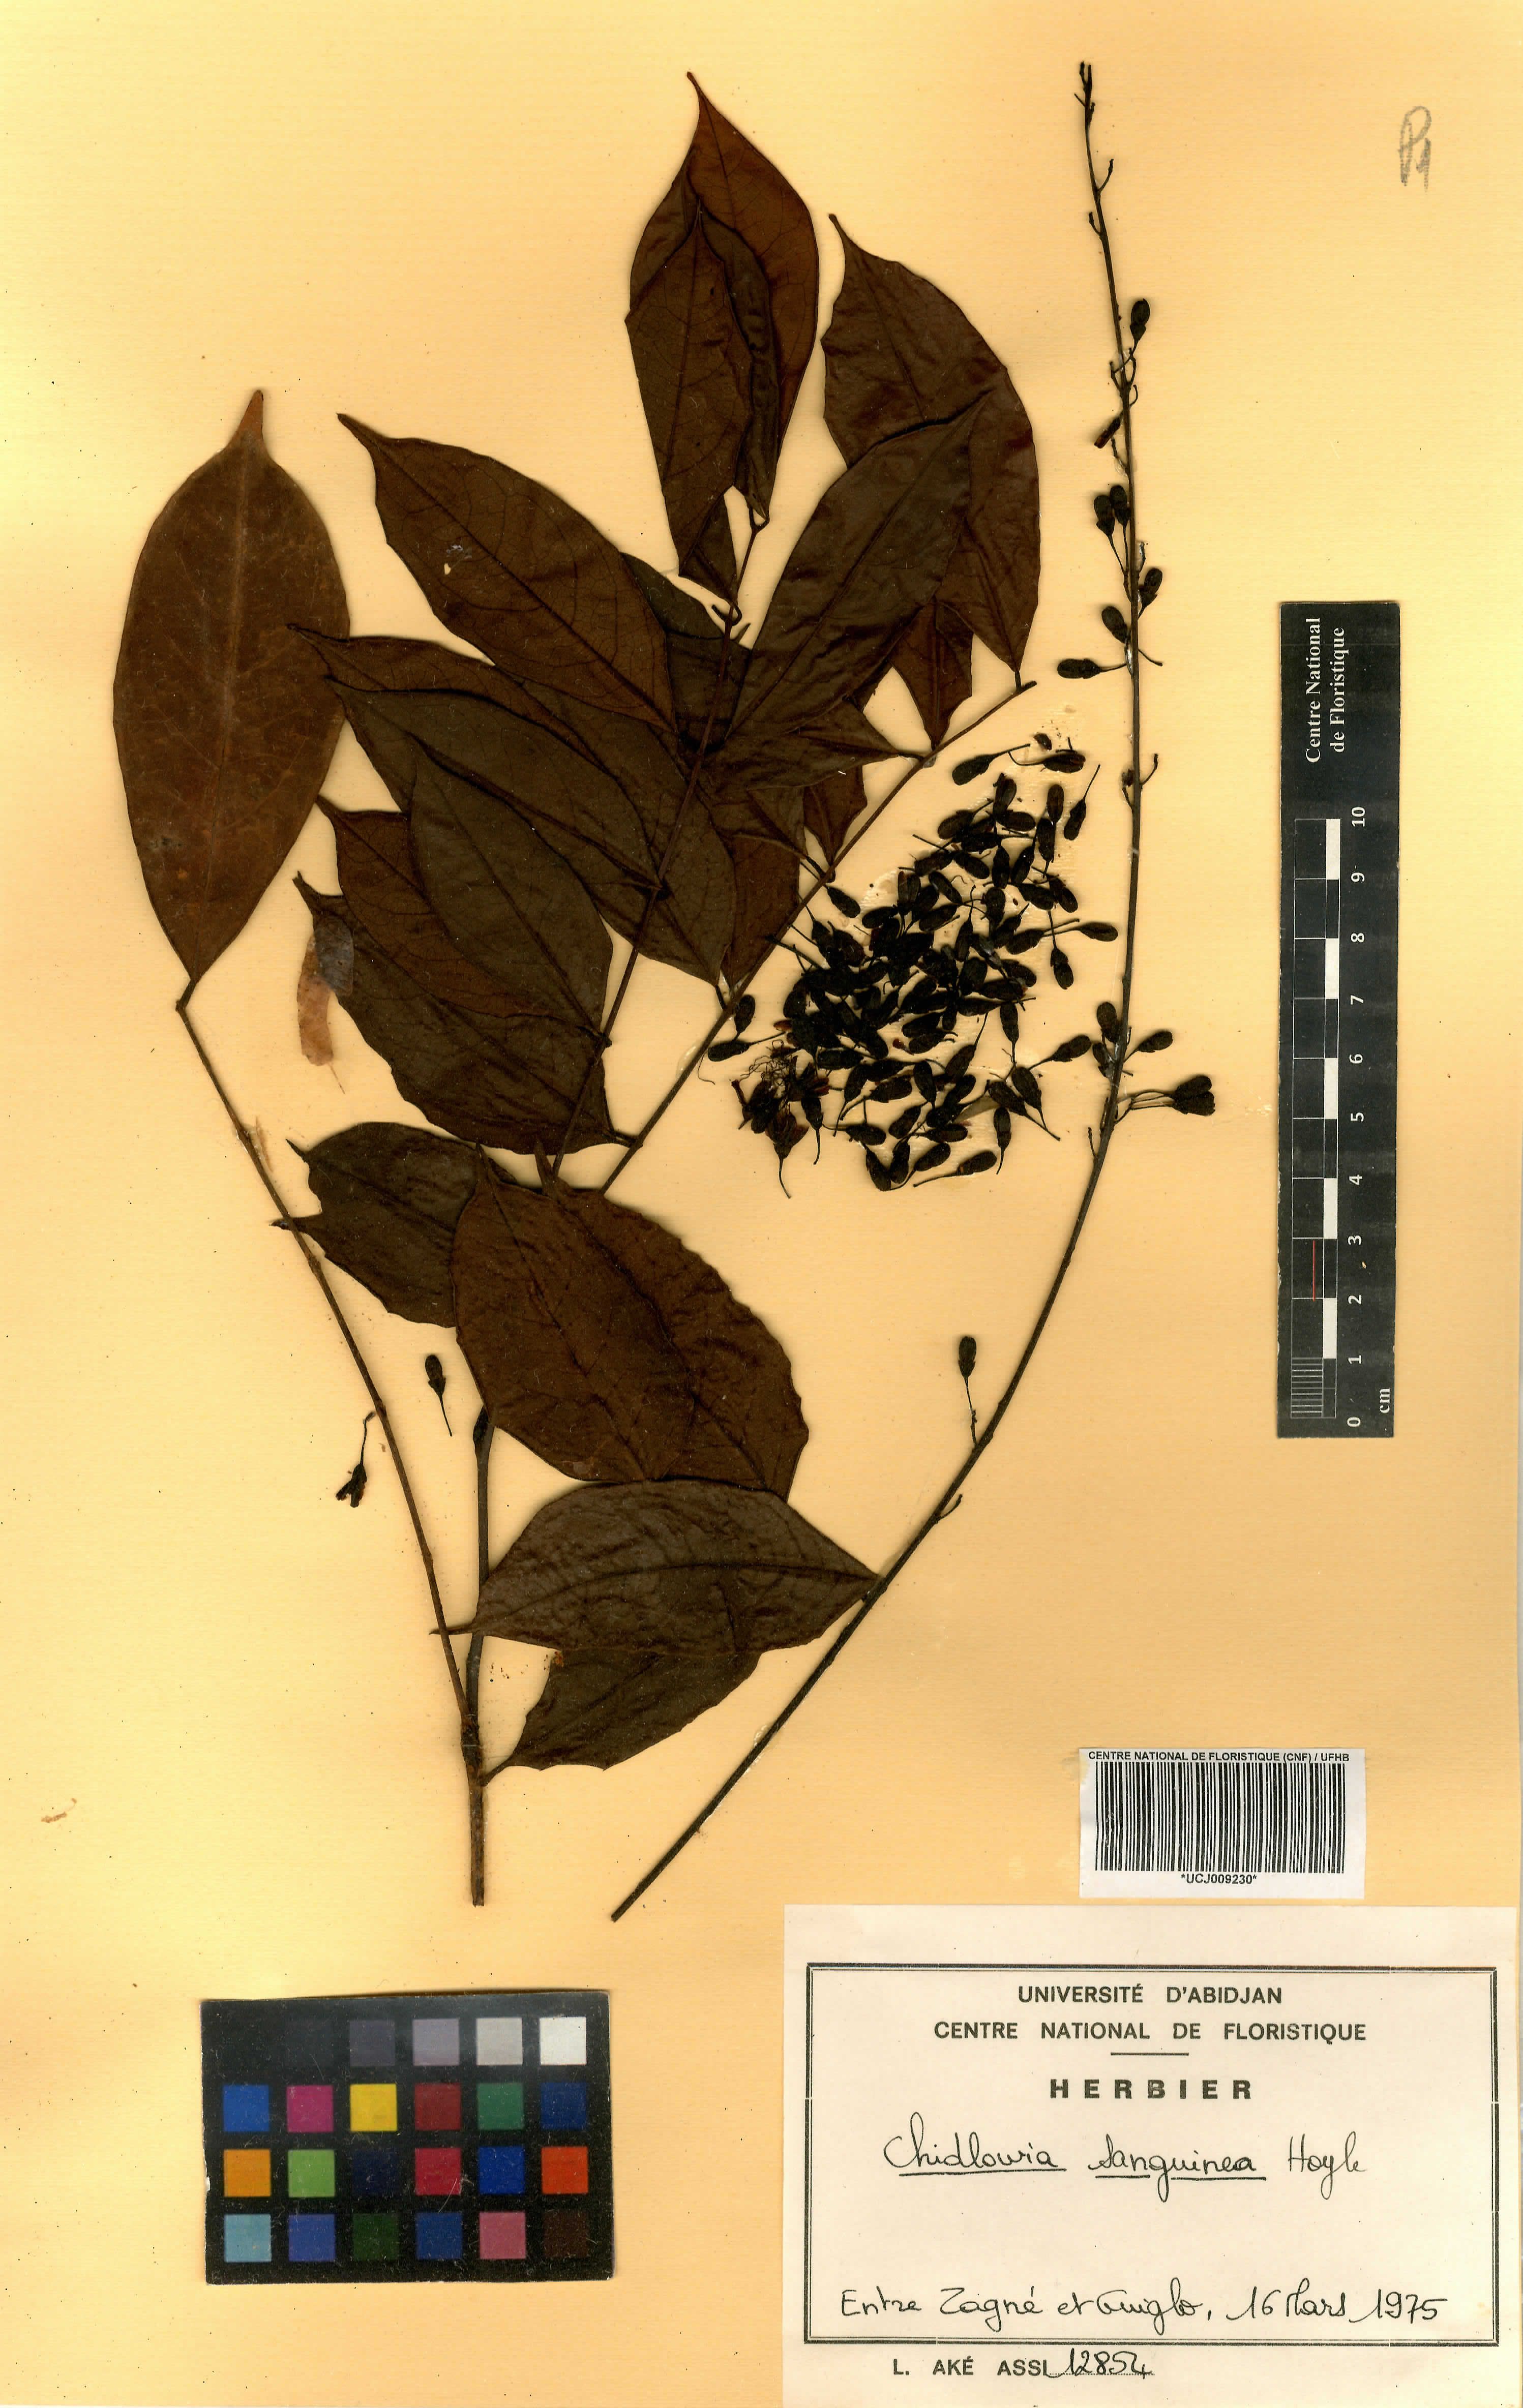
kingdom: Plantae
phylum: Tracheophyta
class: Magnoliopsida
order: Fabales
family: Fabaceae
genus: Chidlowia
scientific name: Chidlowia sanguinea
